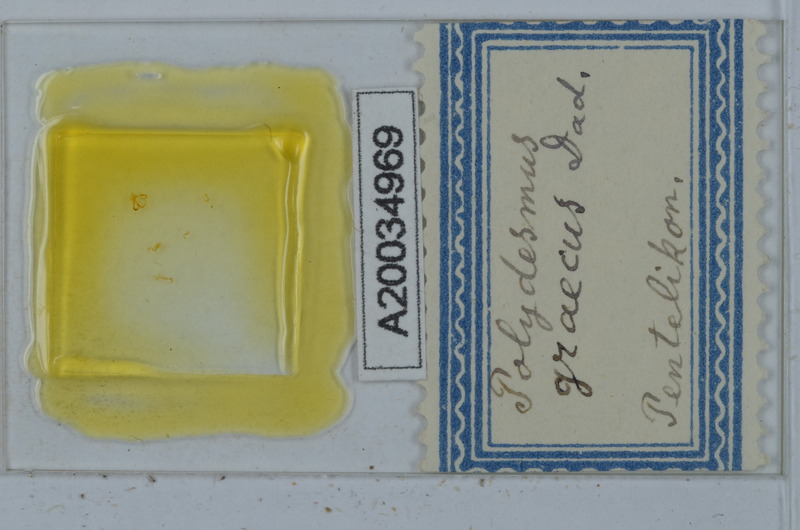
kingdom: Animalia
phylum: Arthropoda
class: Diplopoda
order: Polydesmida
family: Polydesmidae
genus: Polydesmus
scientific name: Polydesmus graecus
